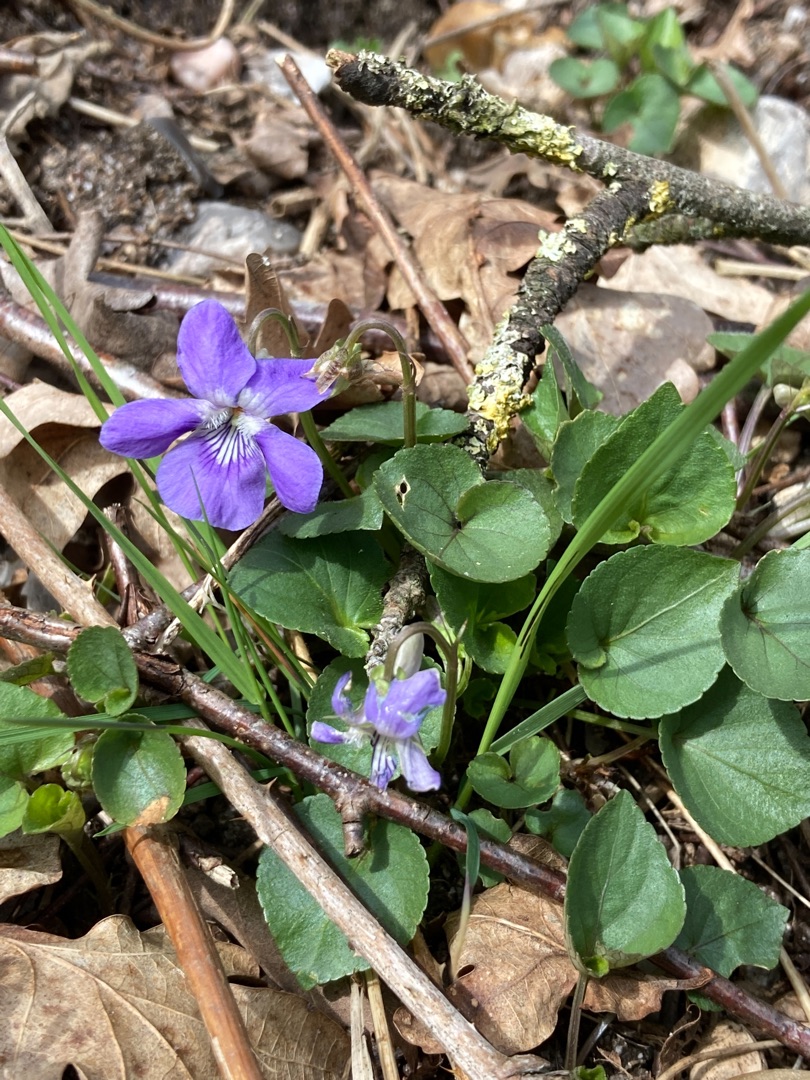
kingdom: Plantae
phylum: Tracheophyta
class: Magnoliopsida
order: Malpighiales
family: Violaceae
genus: Viola
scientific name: Viola riviniana
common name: Krat-viol
